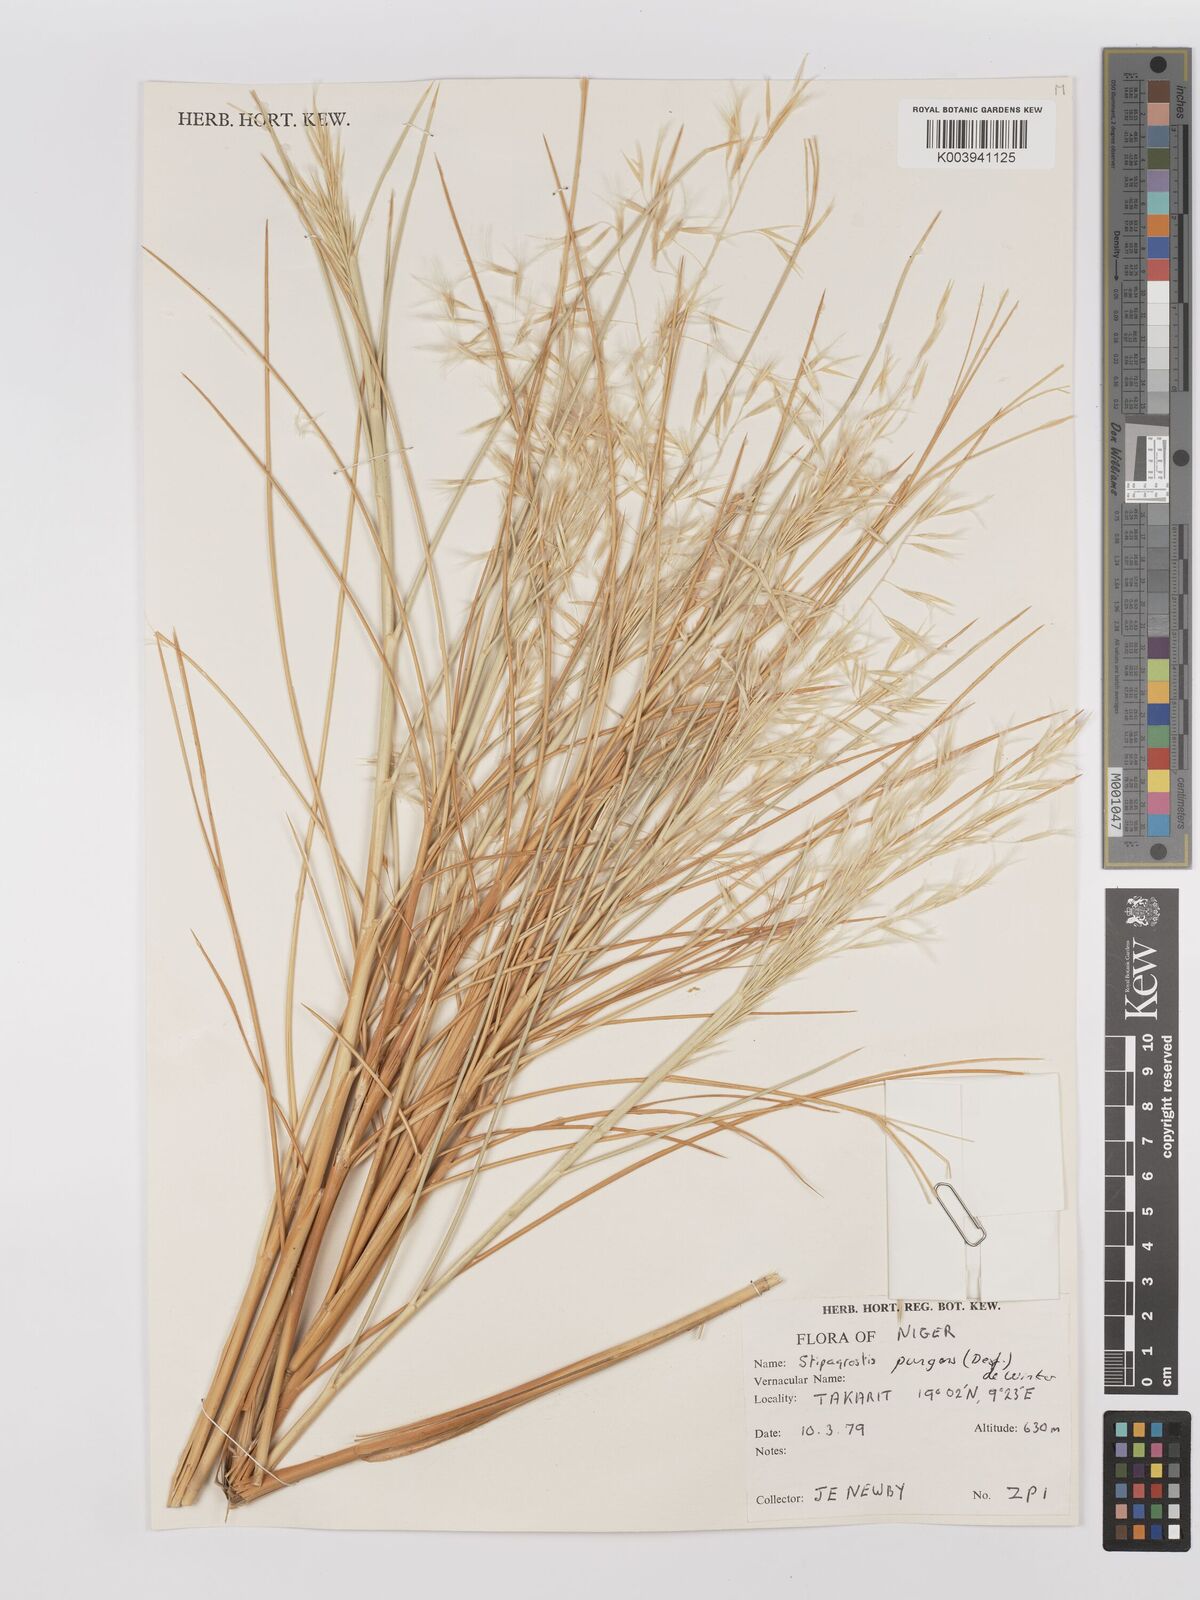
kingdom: Plantae
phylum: Tracheophyta
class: Liliopsida
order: Poales
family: Poaceae
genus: Stipagrostis
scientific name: Stipagrostis pungens
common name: Three-awn grass
